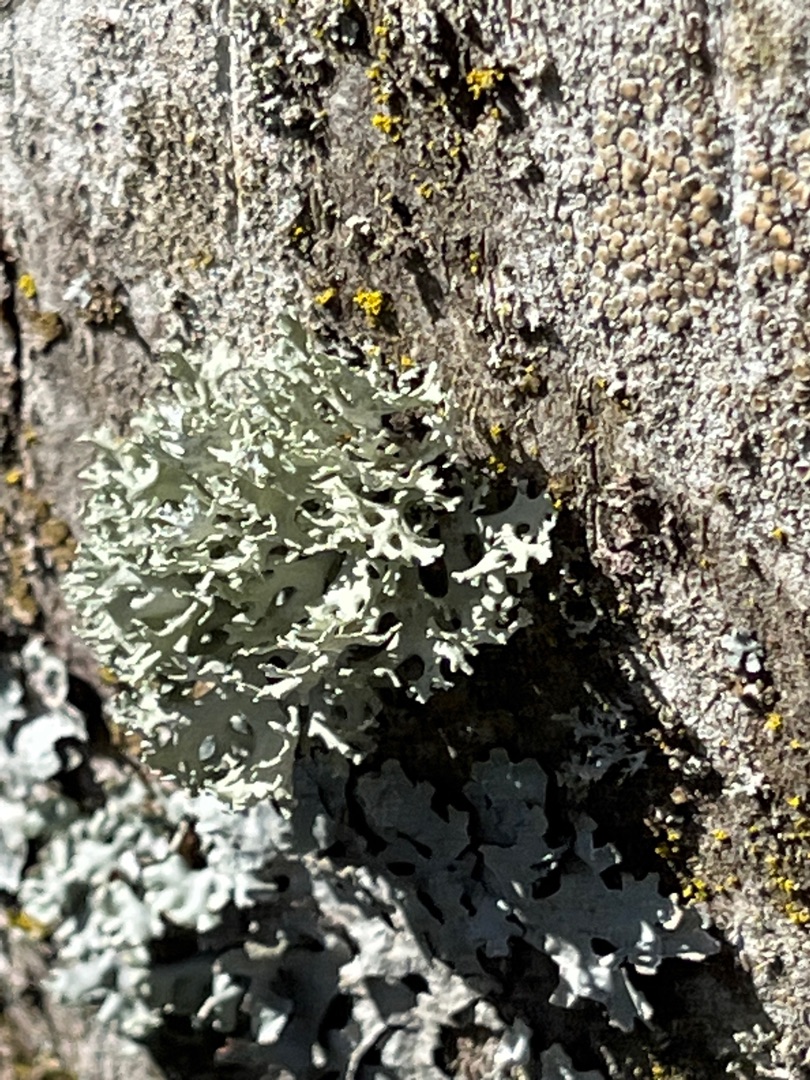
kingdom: Fungi
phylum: Ascomycota
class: Lecanoromycetes
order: Lecanorales
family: Parmeliaceae
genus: Evernia
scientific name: Evernia prunastri
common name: Almindelig slåenlav
